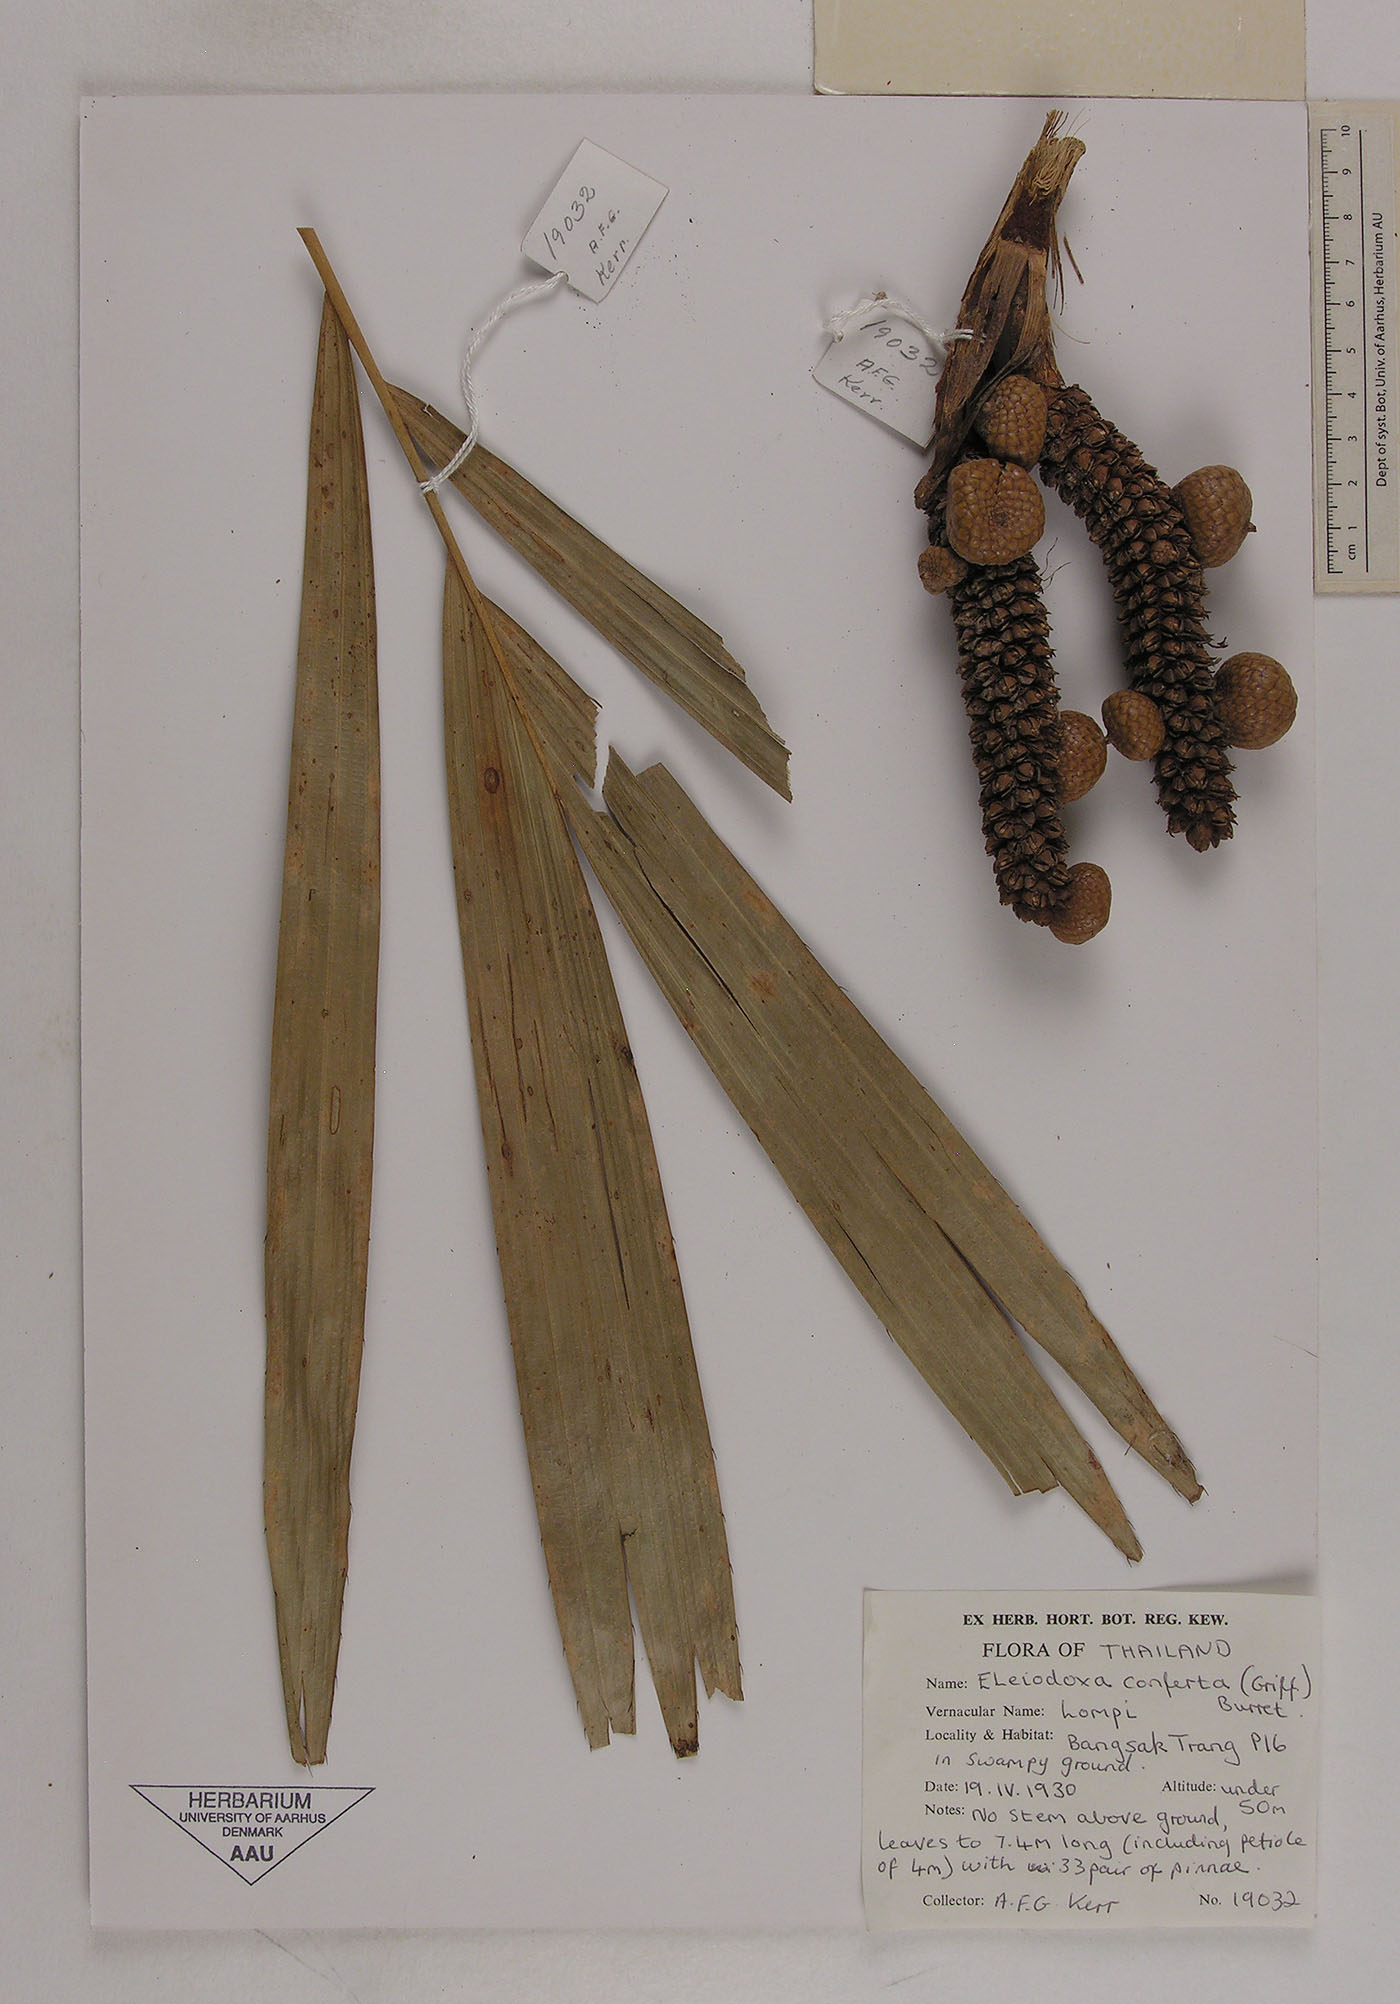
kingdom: Plantae
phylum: Tracheophyta
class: Liliopsida
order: Arecales
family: Arecaceae
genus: Eleiodoxa
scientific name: Eleiodoxa conferta
